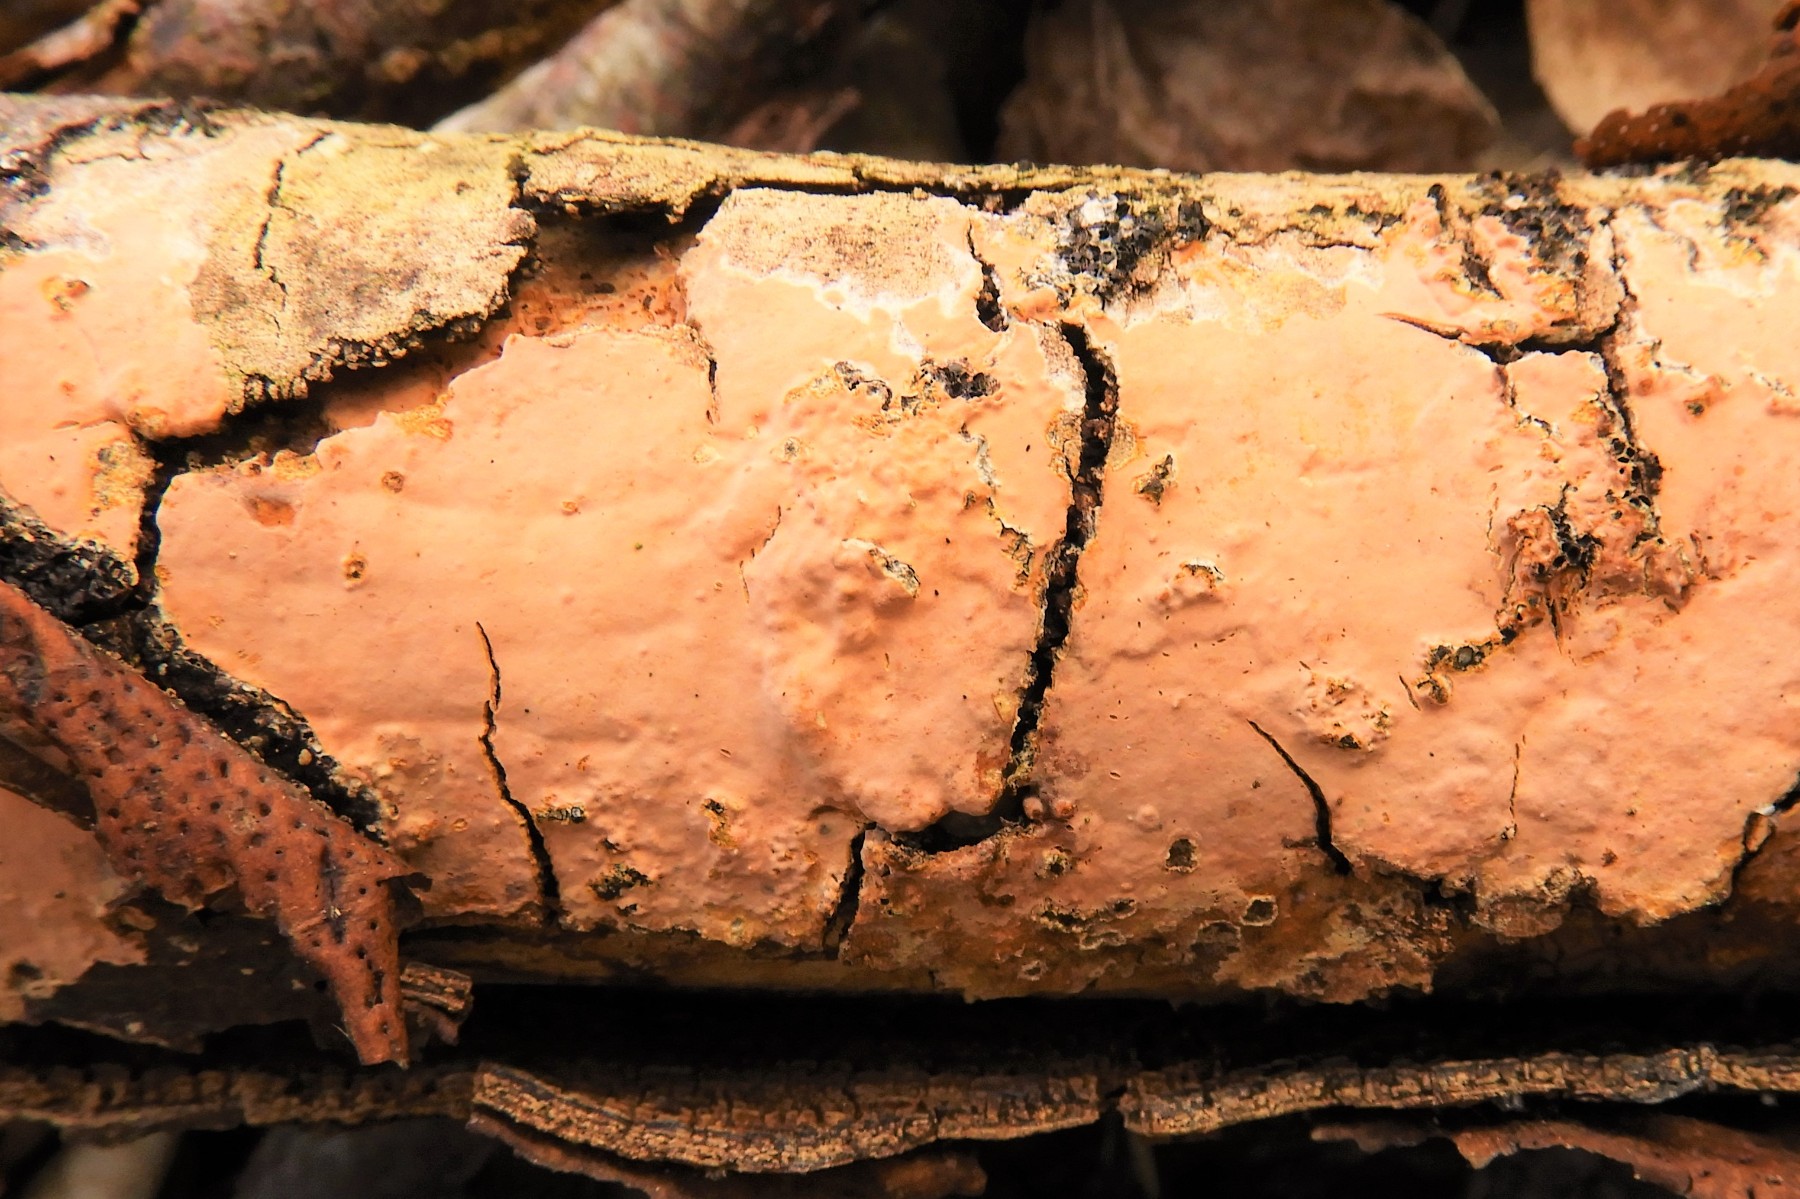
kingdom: Fungi
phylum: Basidiomycota
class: Agaricomycetes
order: Russulales
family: Peniophoraceae
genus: Peniophora
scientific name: Peniophora incarnata
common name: laksefarvet voksskind
